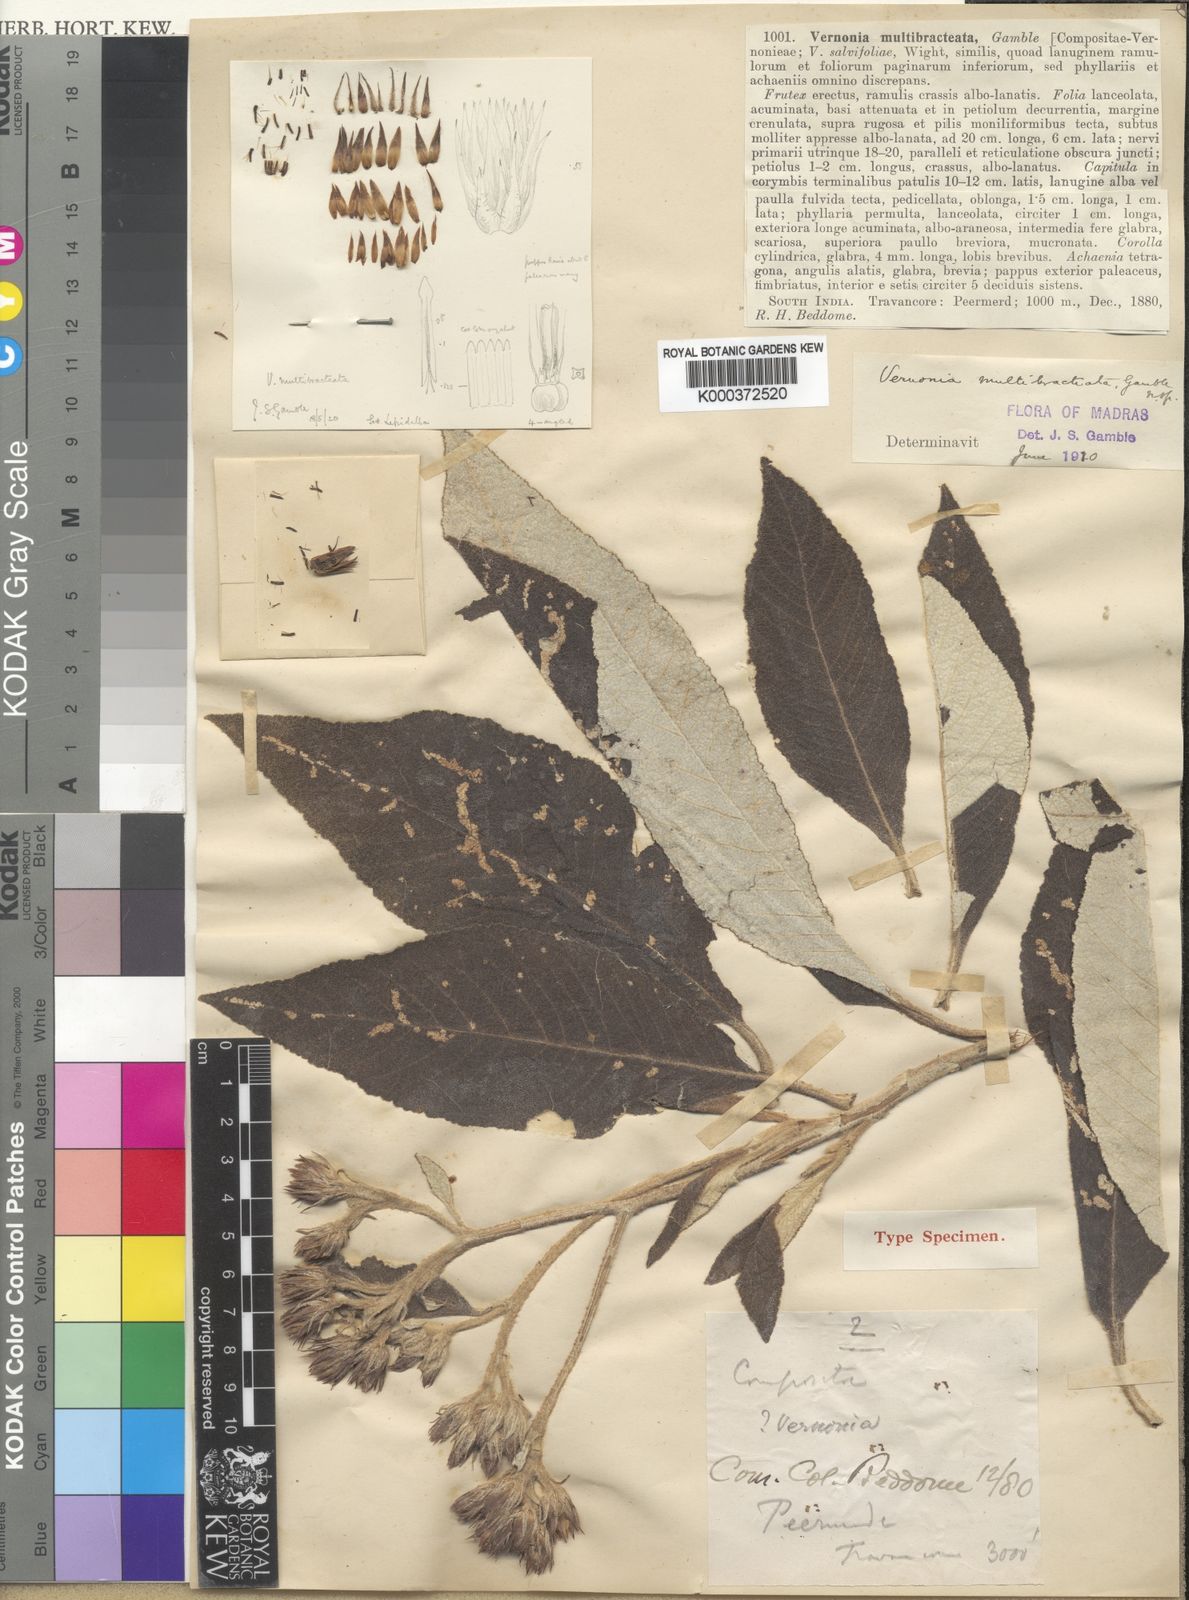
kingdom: Plantae
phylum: Tracheophyta
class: Magnoliopsida
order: Asterales
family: Asteraceae
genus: Uniyala
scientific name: Uniyala multibracteata
